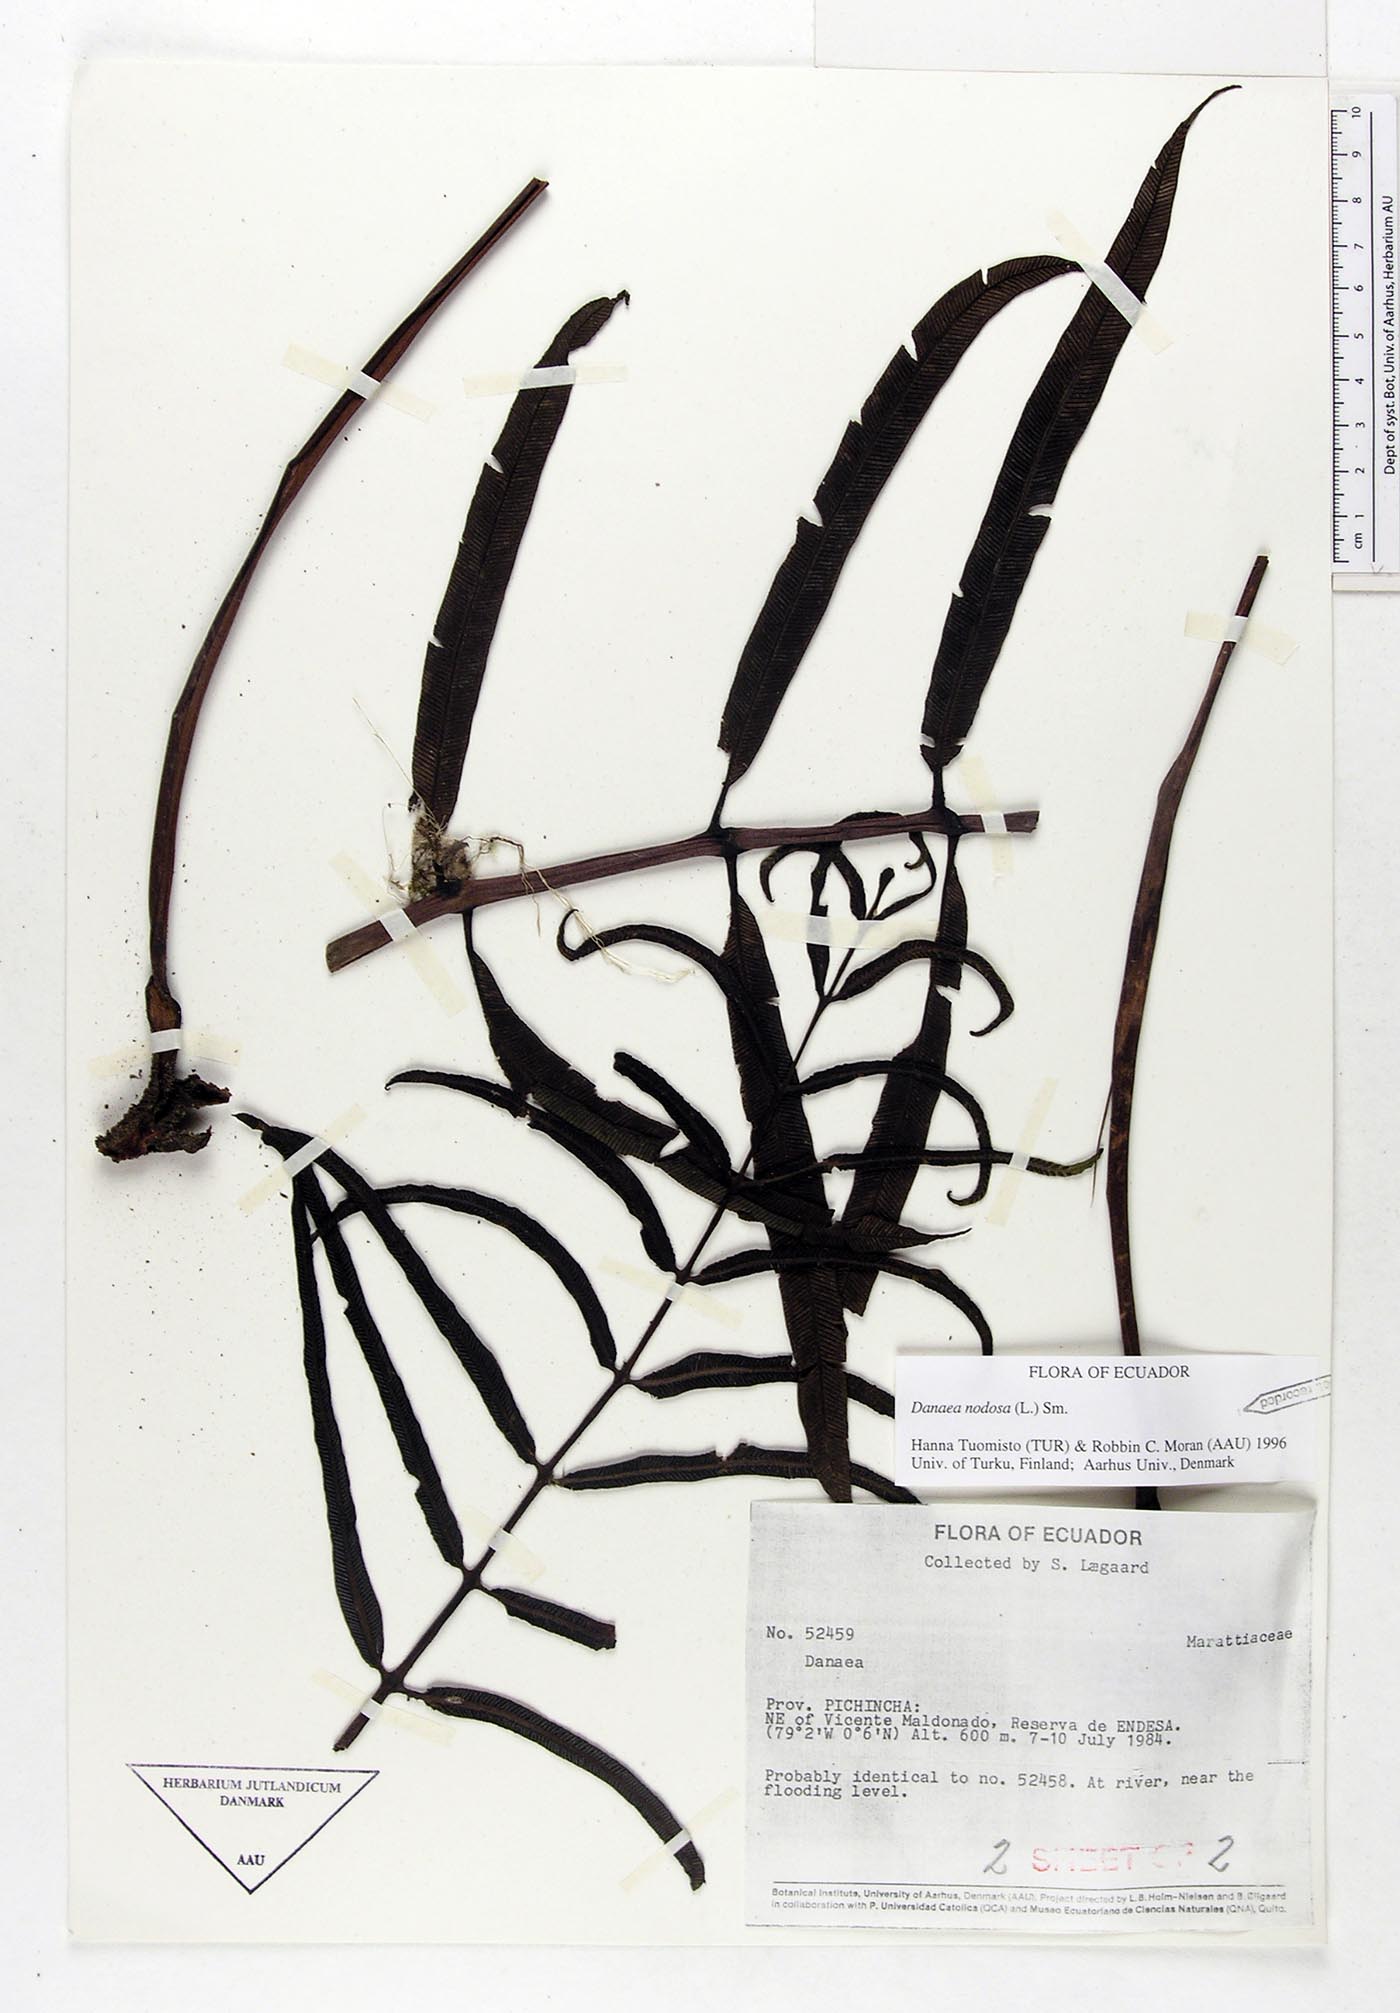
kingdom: Plantae
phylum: Tracheophyta
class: Polypodiopsida
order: Marattiales
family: Marattiaceae
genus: Danaea
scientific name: Danaea nodosa
